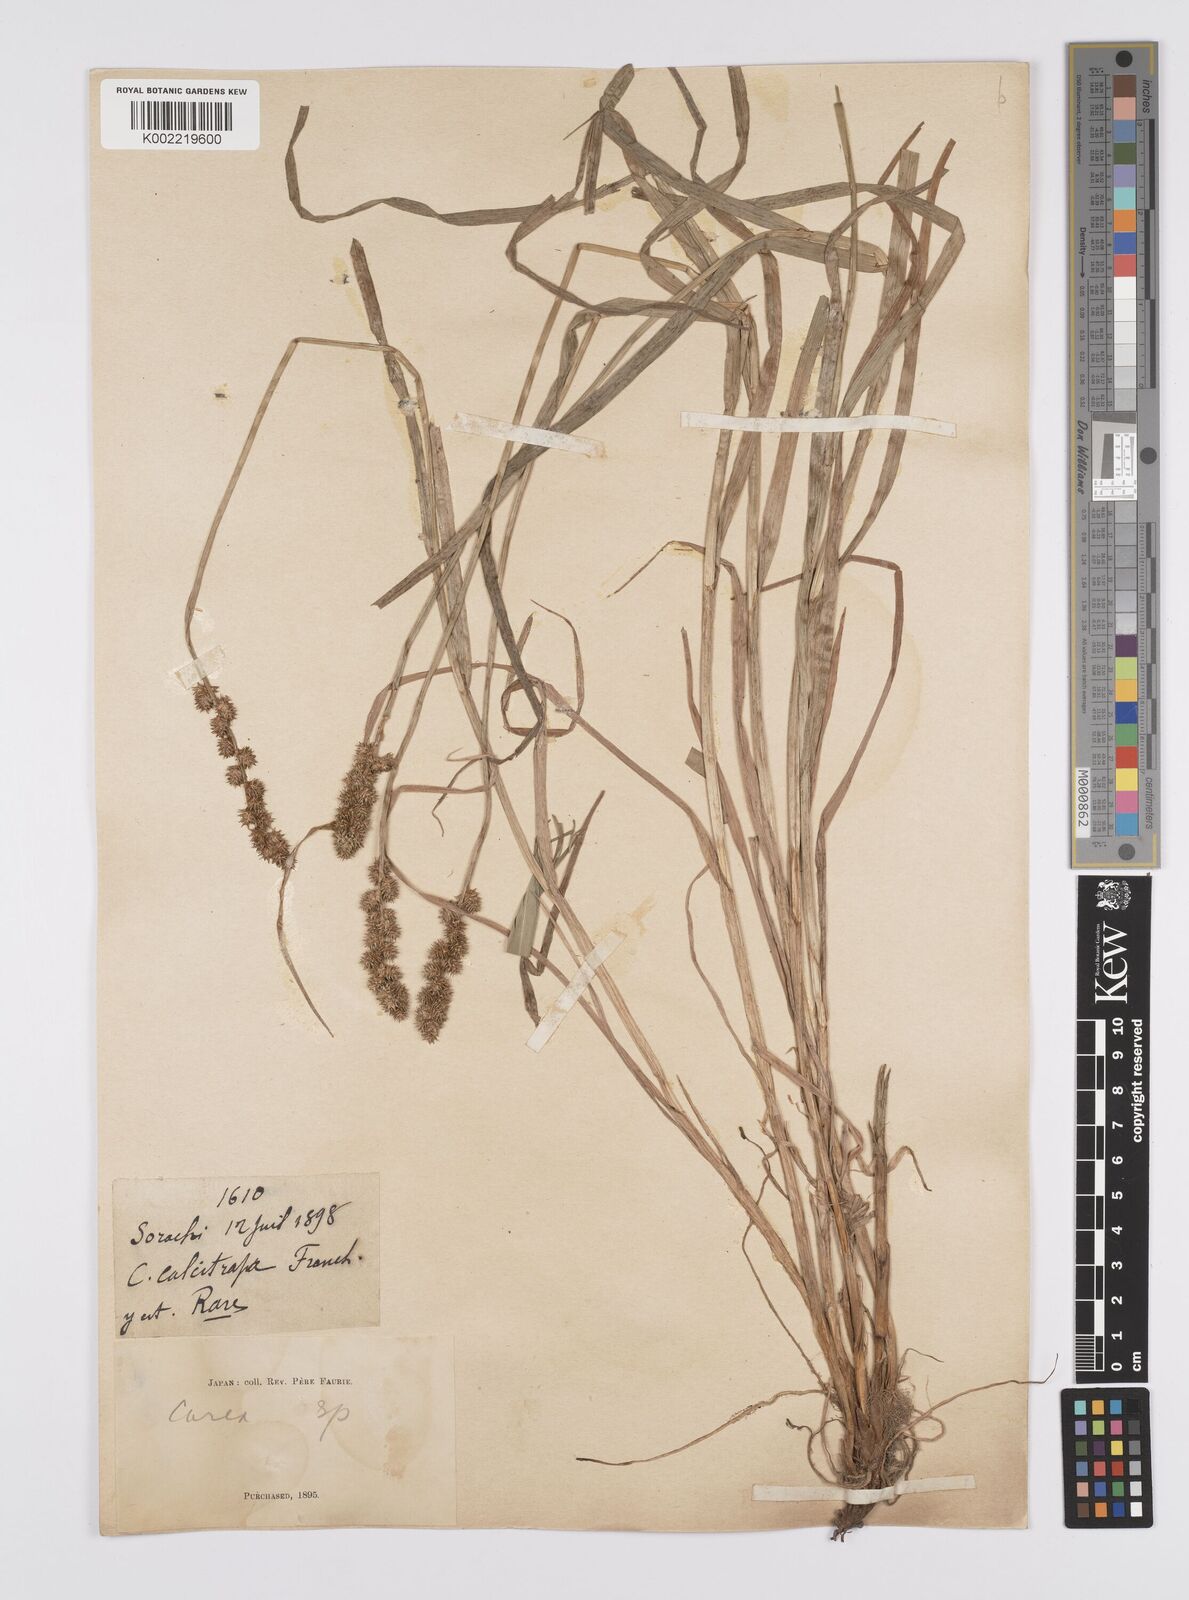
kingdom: Plantae
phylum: Tracheophyta
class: Liliopsida
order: Poales
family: Cyperaceae
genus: Carex
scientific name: Carex maackii
